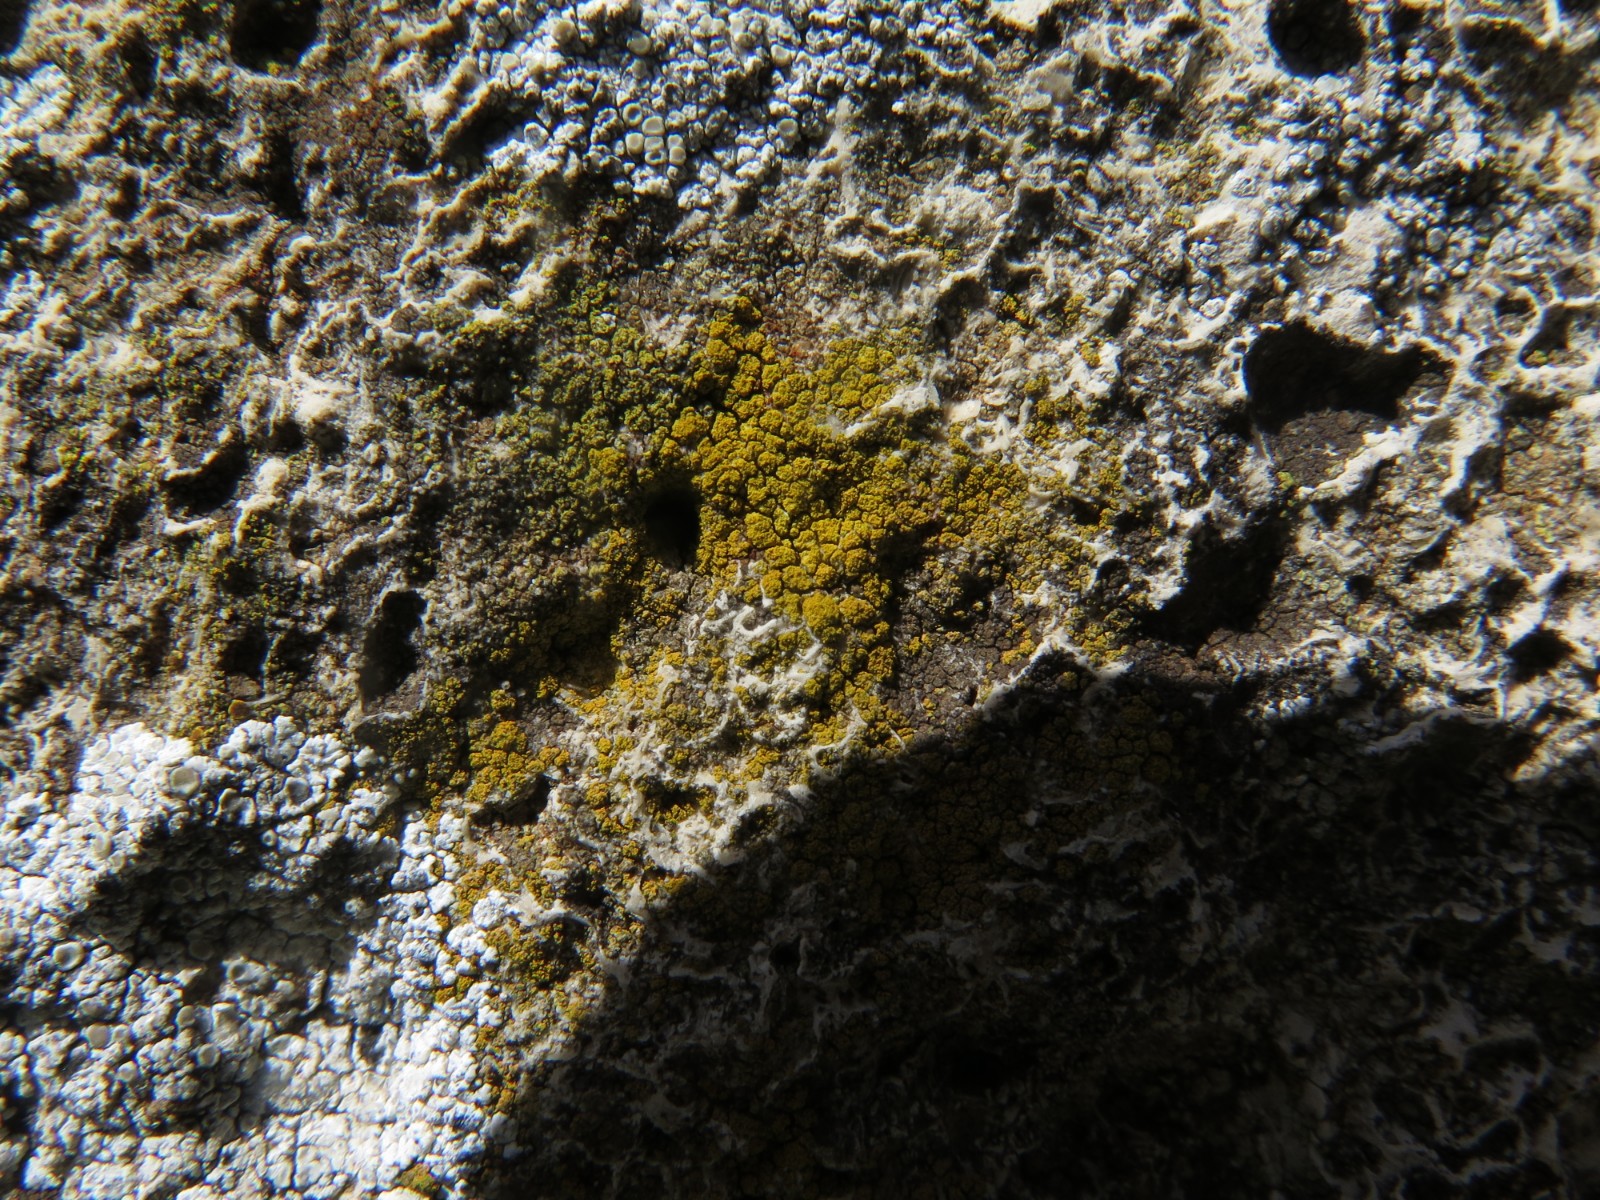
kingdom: Fungi
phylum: Ascomycota
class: Candelariomycetes
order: Candelariales
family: Candelariaceae
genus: Candelariella
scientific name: Candelariella vitellina
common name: almindelig æggeblommelav
